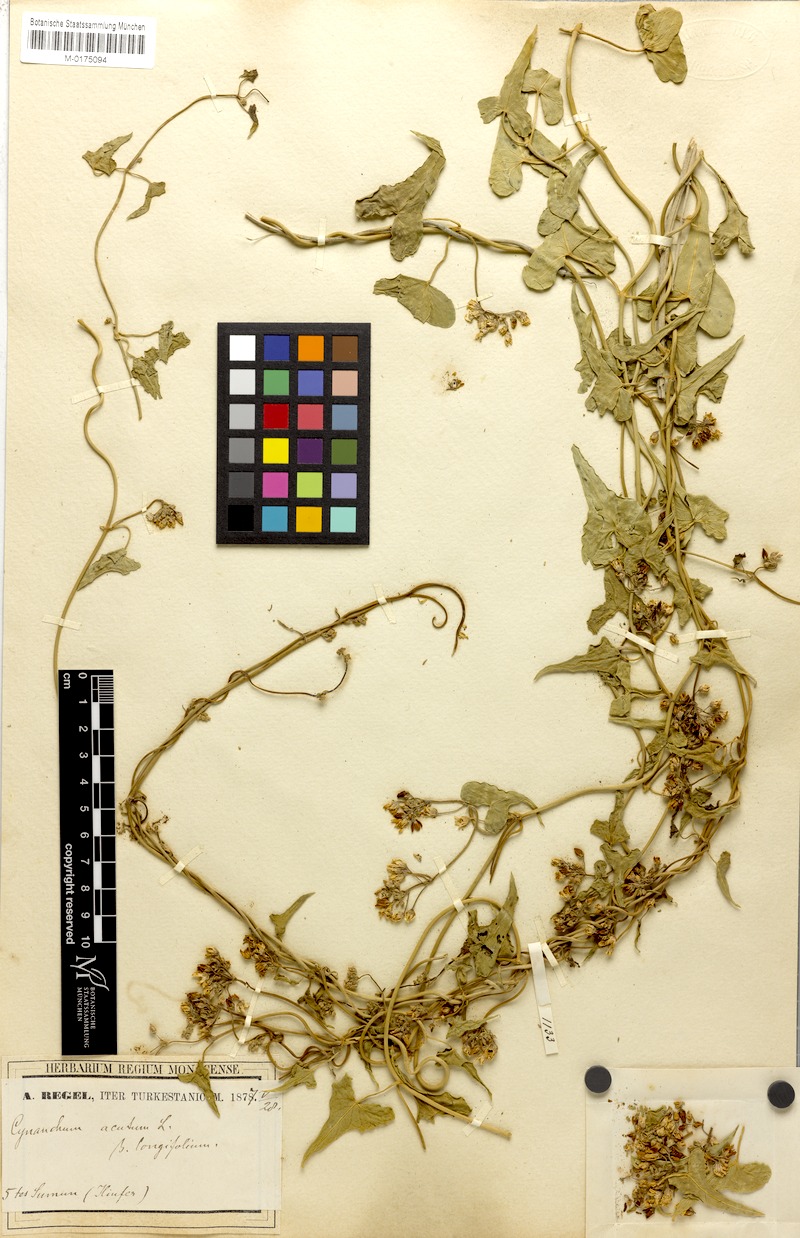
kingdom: Plantae
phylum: Tracheophyta
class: Magnoliopsida
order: Gentianales
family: Apocynaceae
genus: Cynanchum
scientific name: Cynanchum acutum
